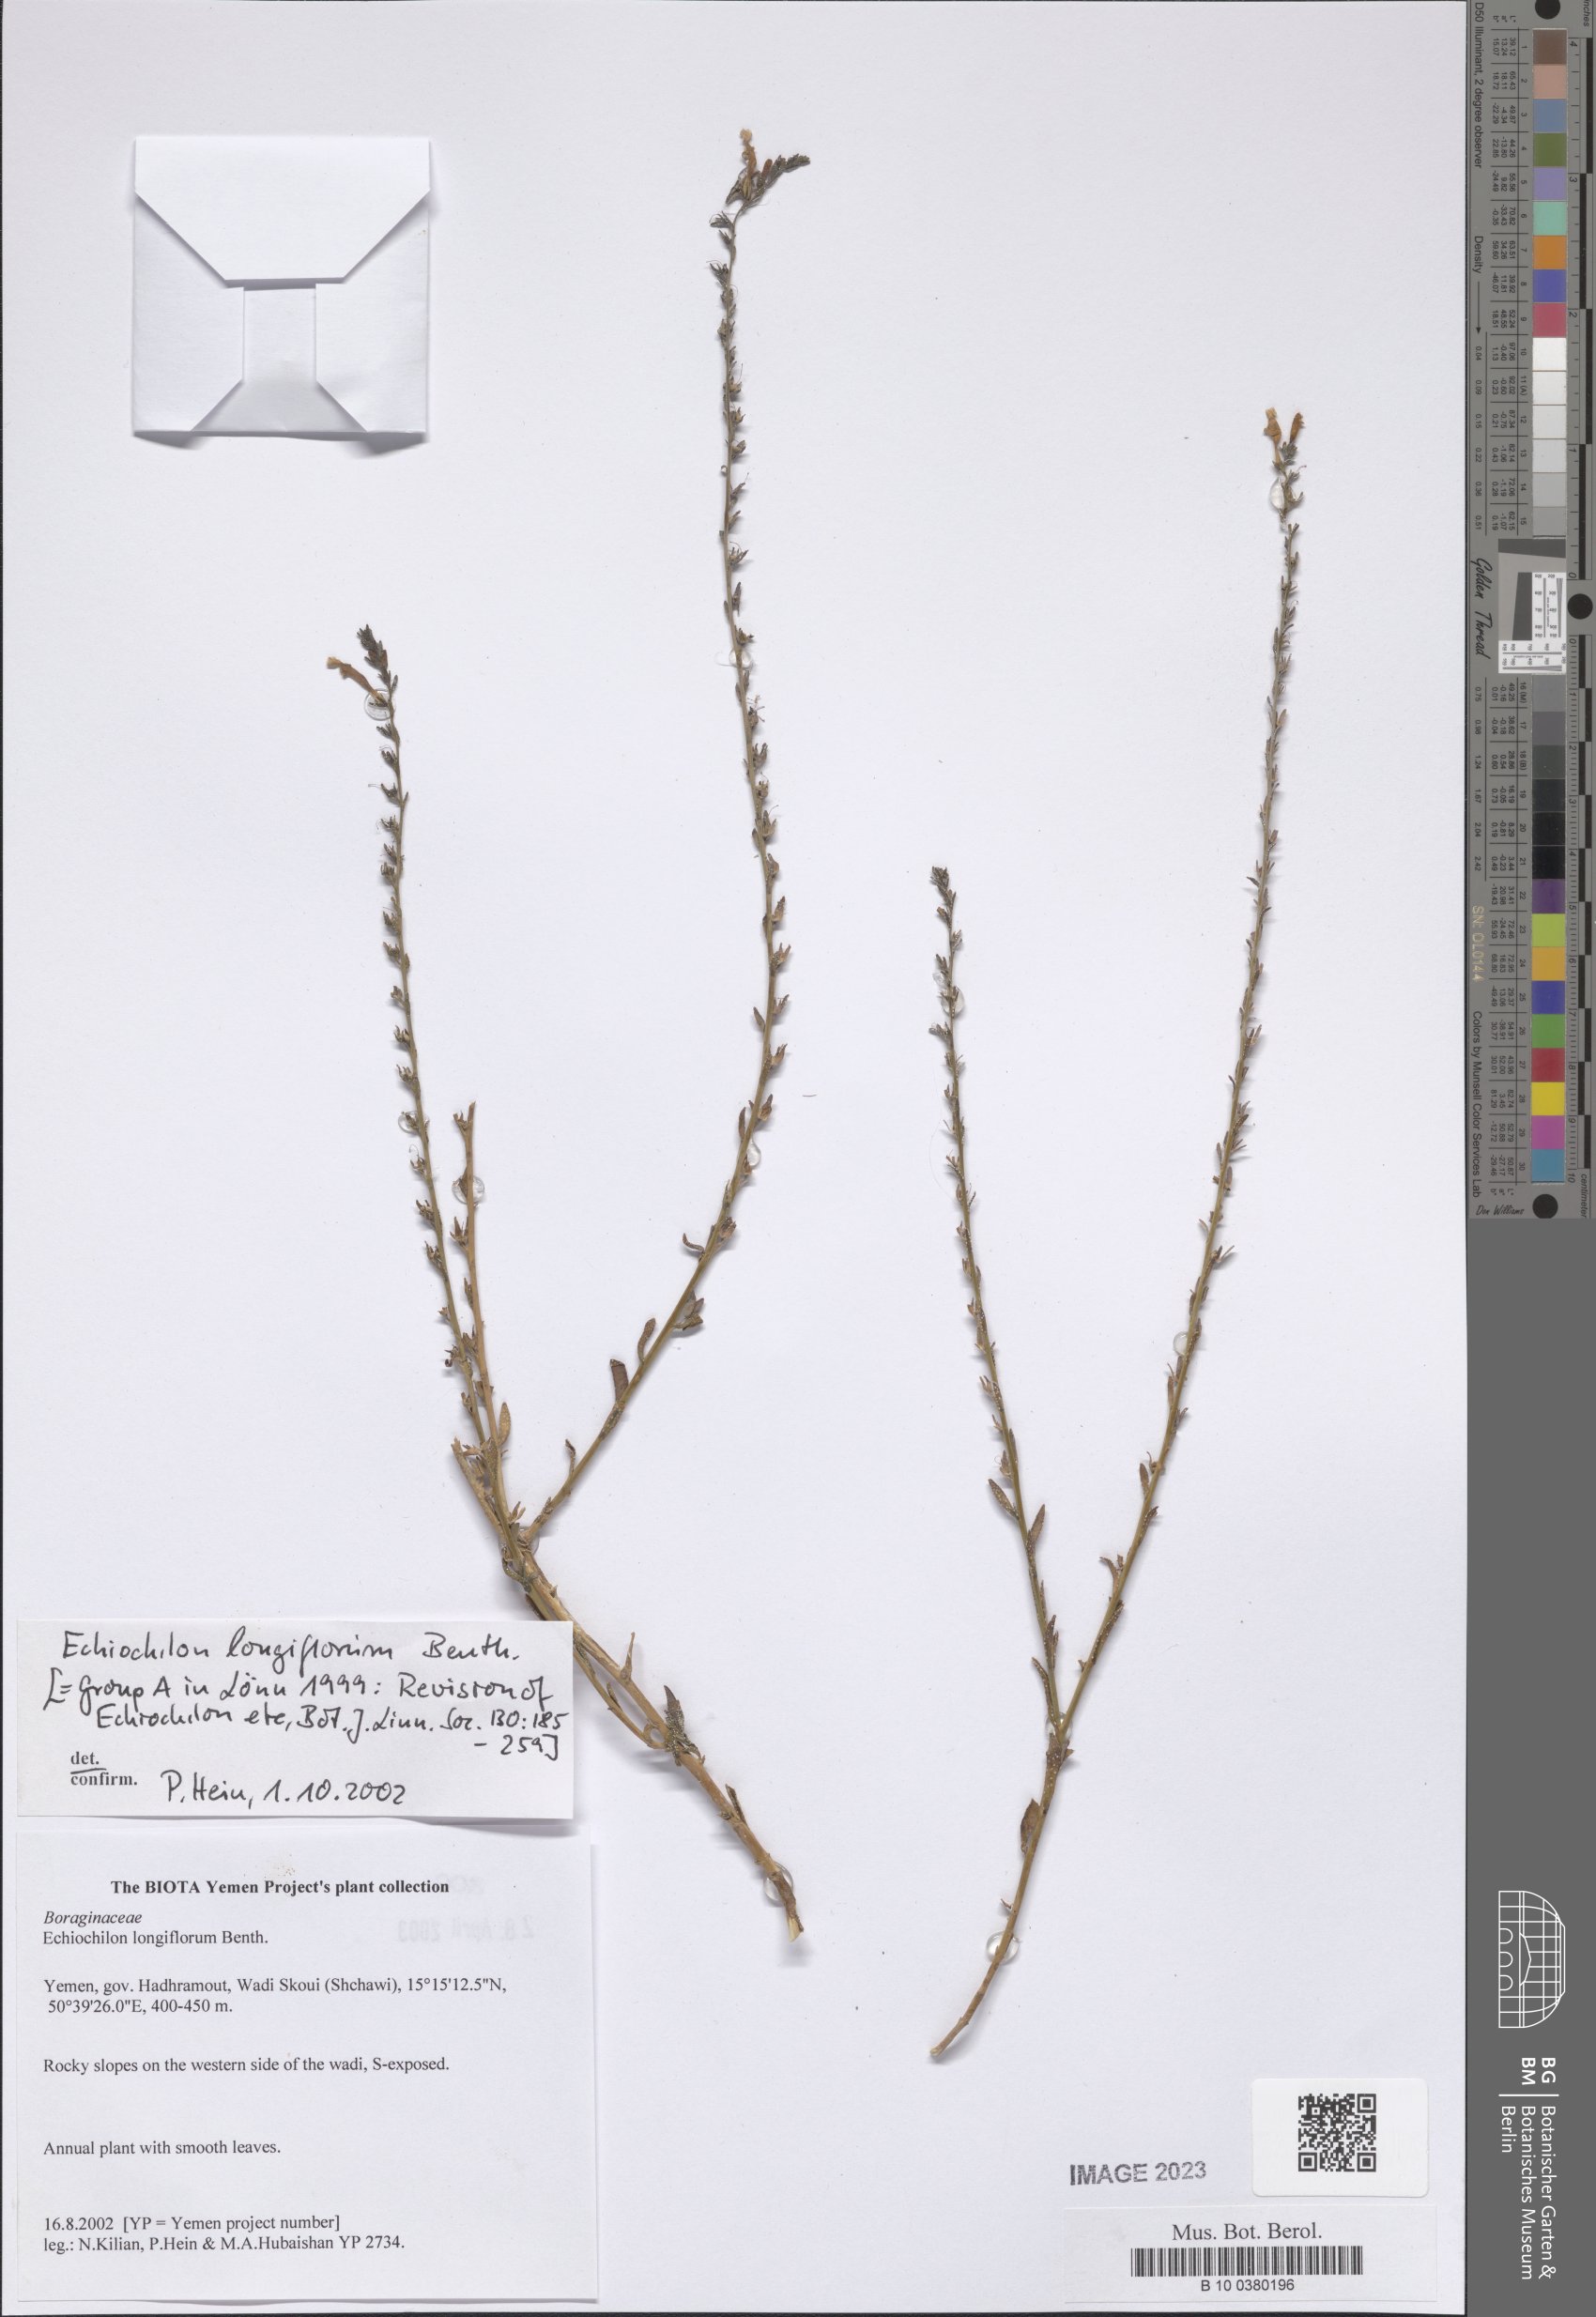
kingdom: Plantae
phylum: Tracheophyta
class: Magnoliopsida
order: Boraginales
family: Boraginaceae
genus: Echiochilon
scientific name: Echiochilon longiflorum
